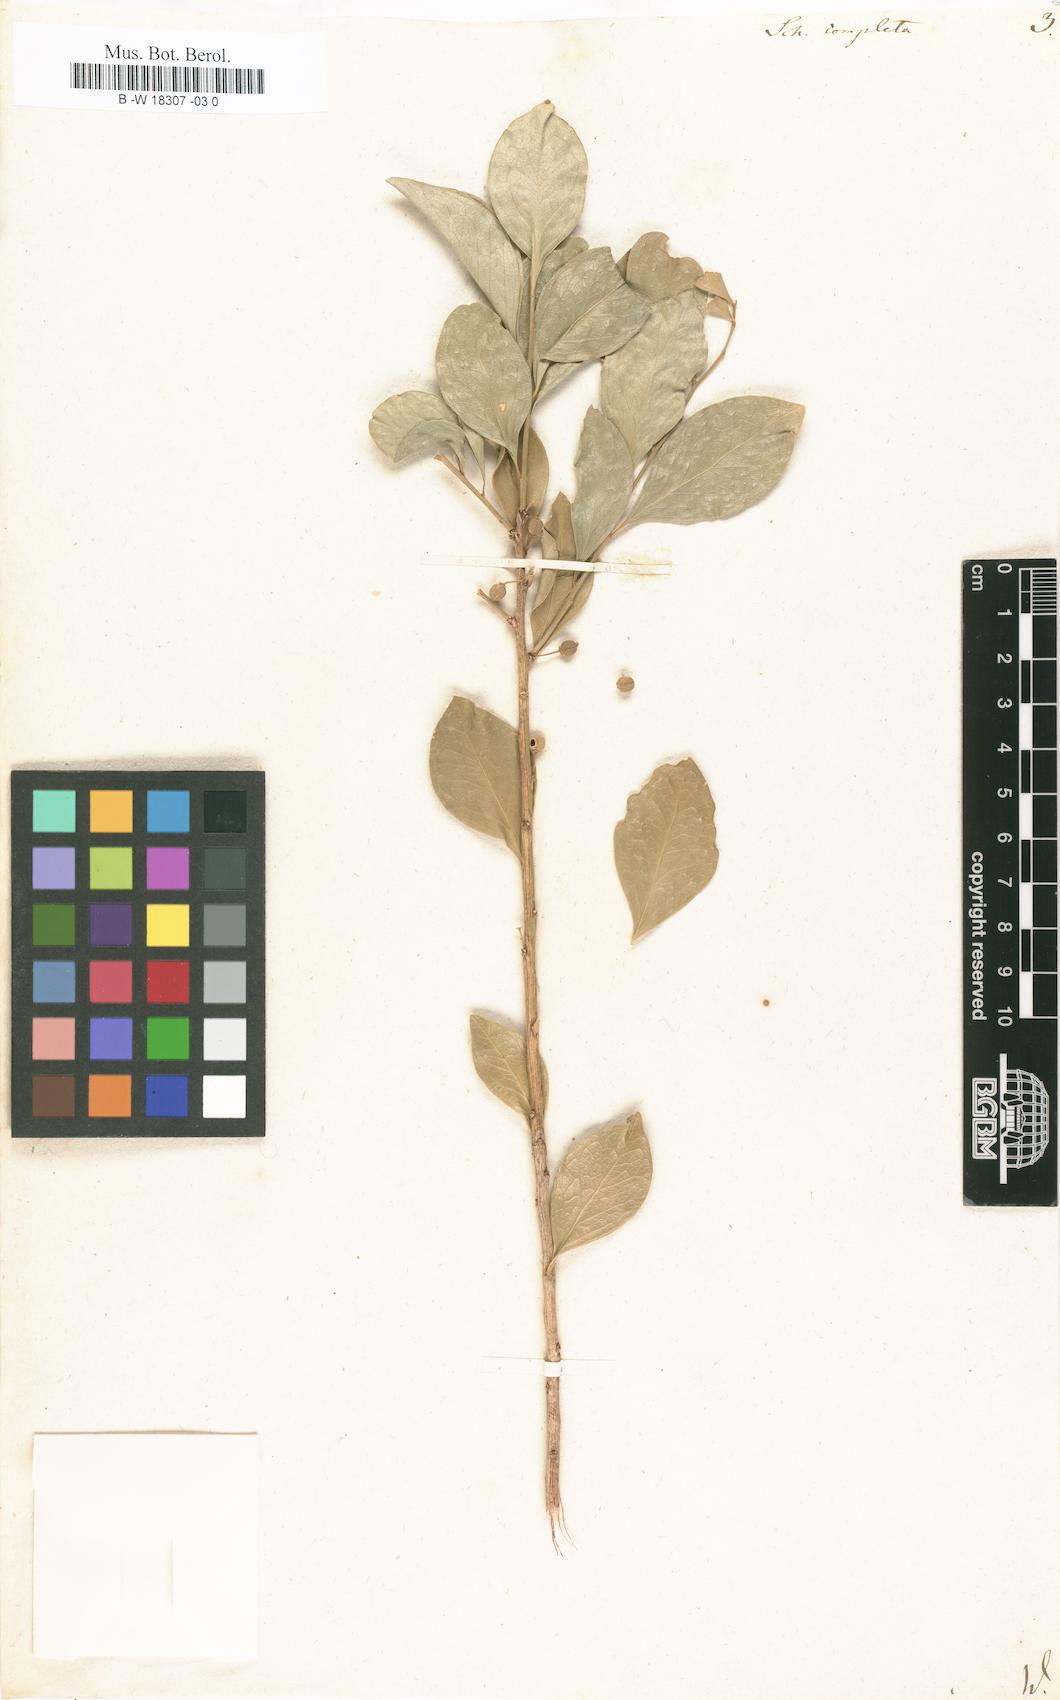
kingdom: Plantae
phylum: Tracheophyta
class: Magnoliopsida
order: Celastrales
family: Celastraceae
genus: Schaefferia
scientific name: Schaefferia frutescens
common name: Boxwood
